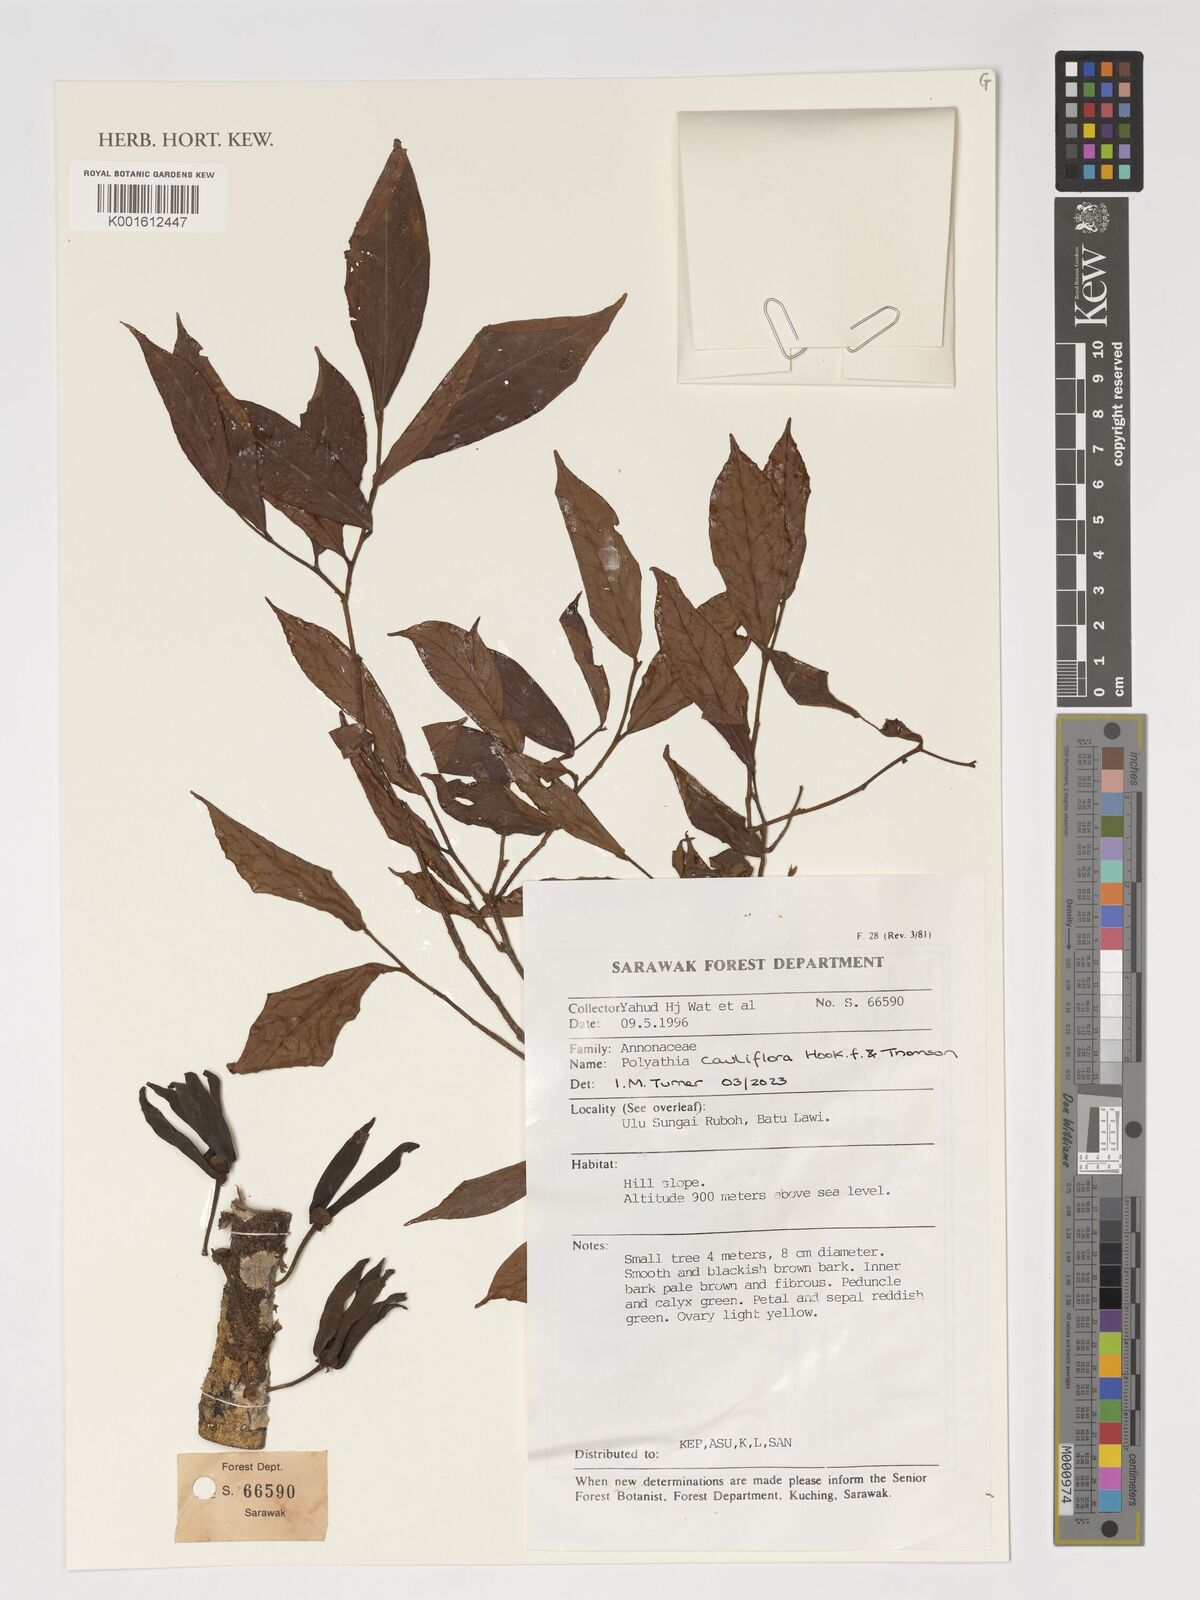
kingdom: Plantae
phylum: Tracheophyta
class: Magnoliopsida
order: Magnoliales
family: Annonaceae
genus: Polyalthia
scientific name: Polyalthia cauliflora
